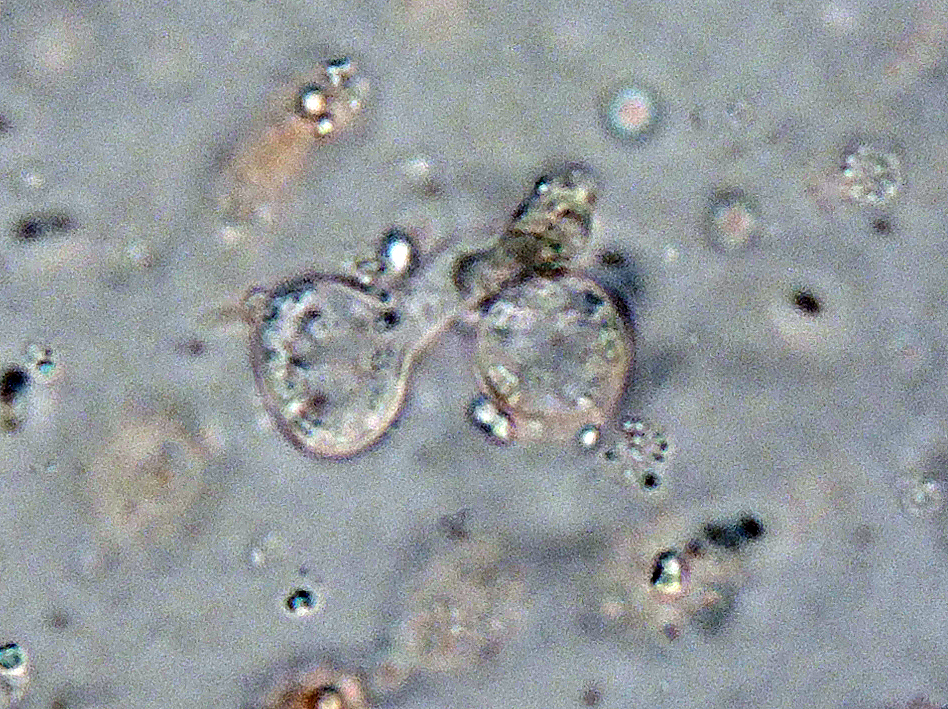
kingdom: Fungi
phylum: Basidiomycota
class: Pucciniomycetes
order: Platygloeales
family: Platygloeaceae
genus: Platygloea
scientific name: Platygloea
